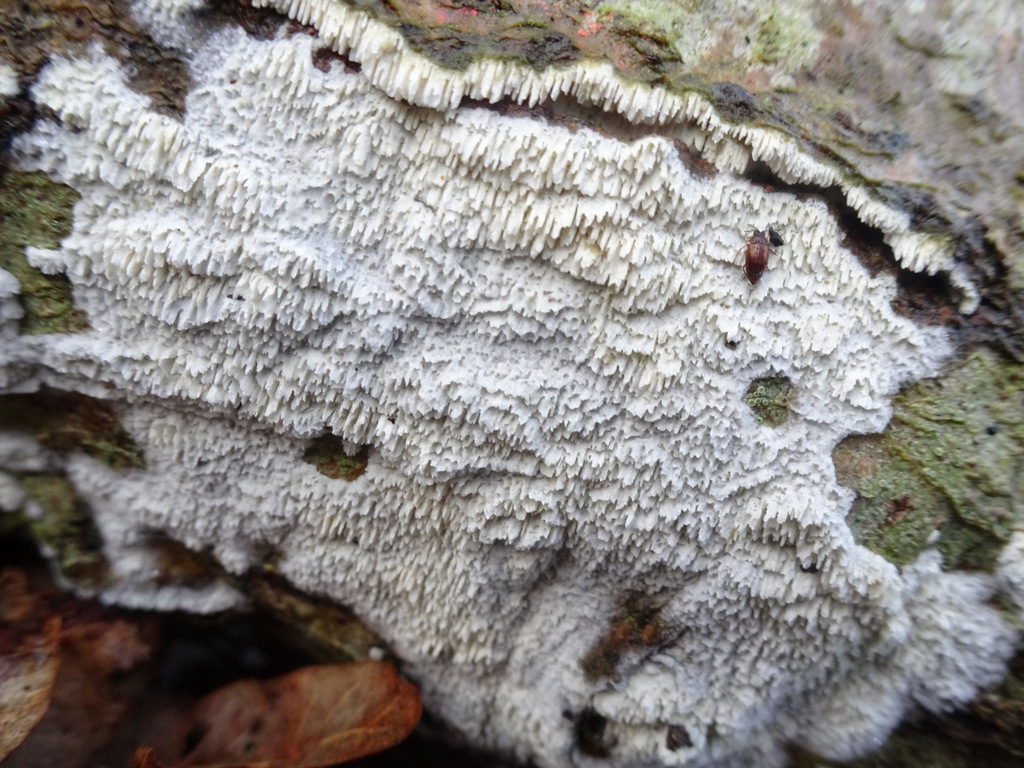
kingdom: Fungi
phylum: Basidiomycota
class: Agaricomycetes
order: Hymenochaetales
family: Schizoporaceae
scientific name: Schizoporaceae
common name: tandsvampfamilien
